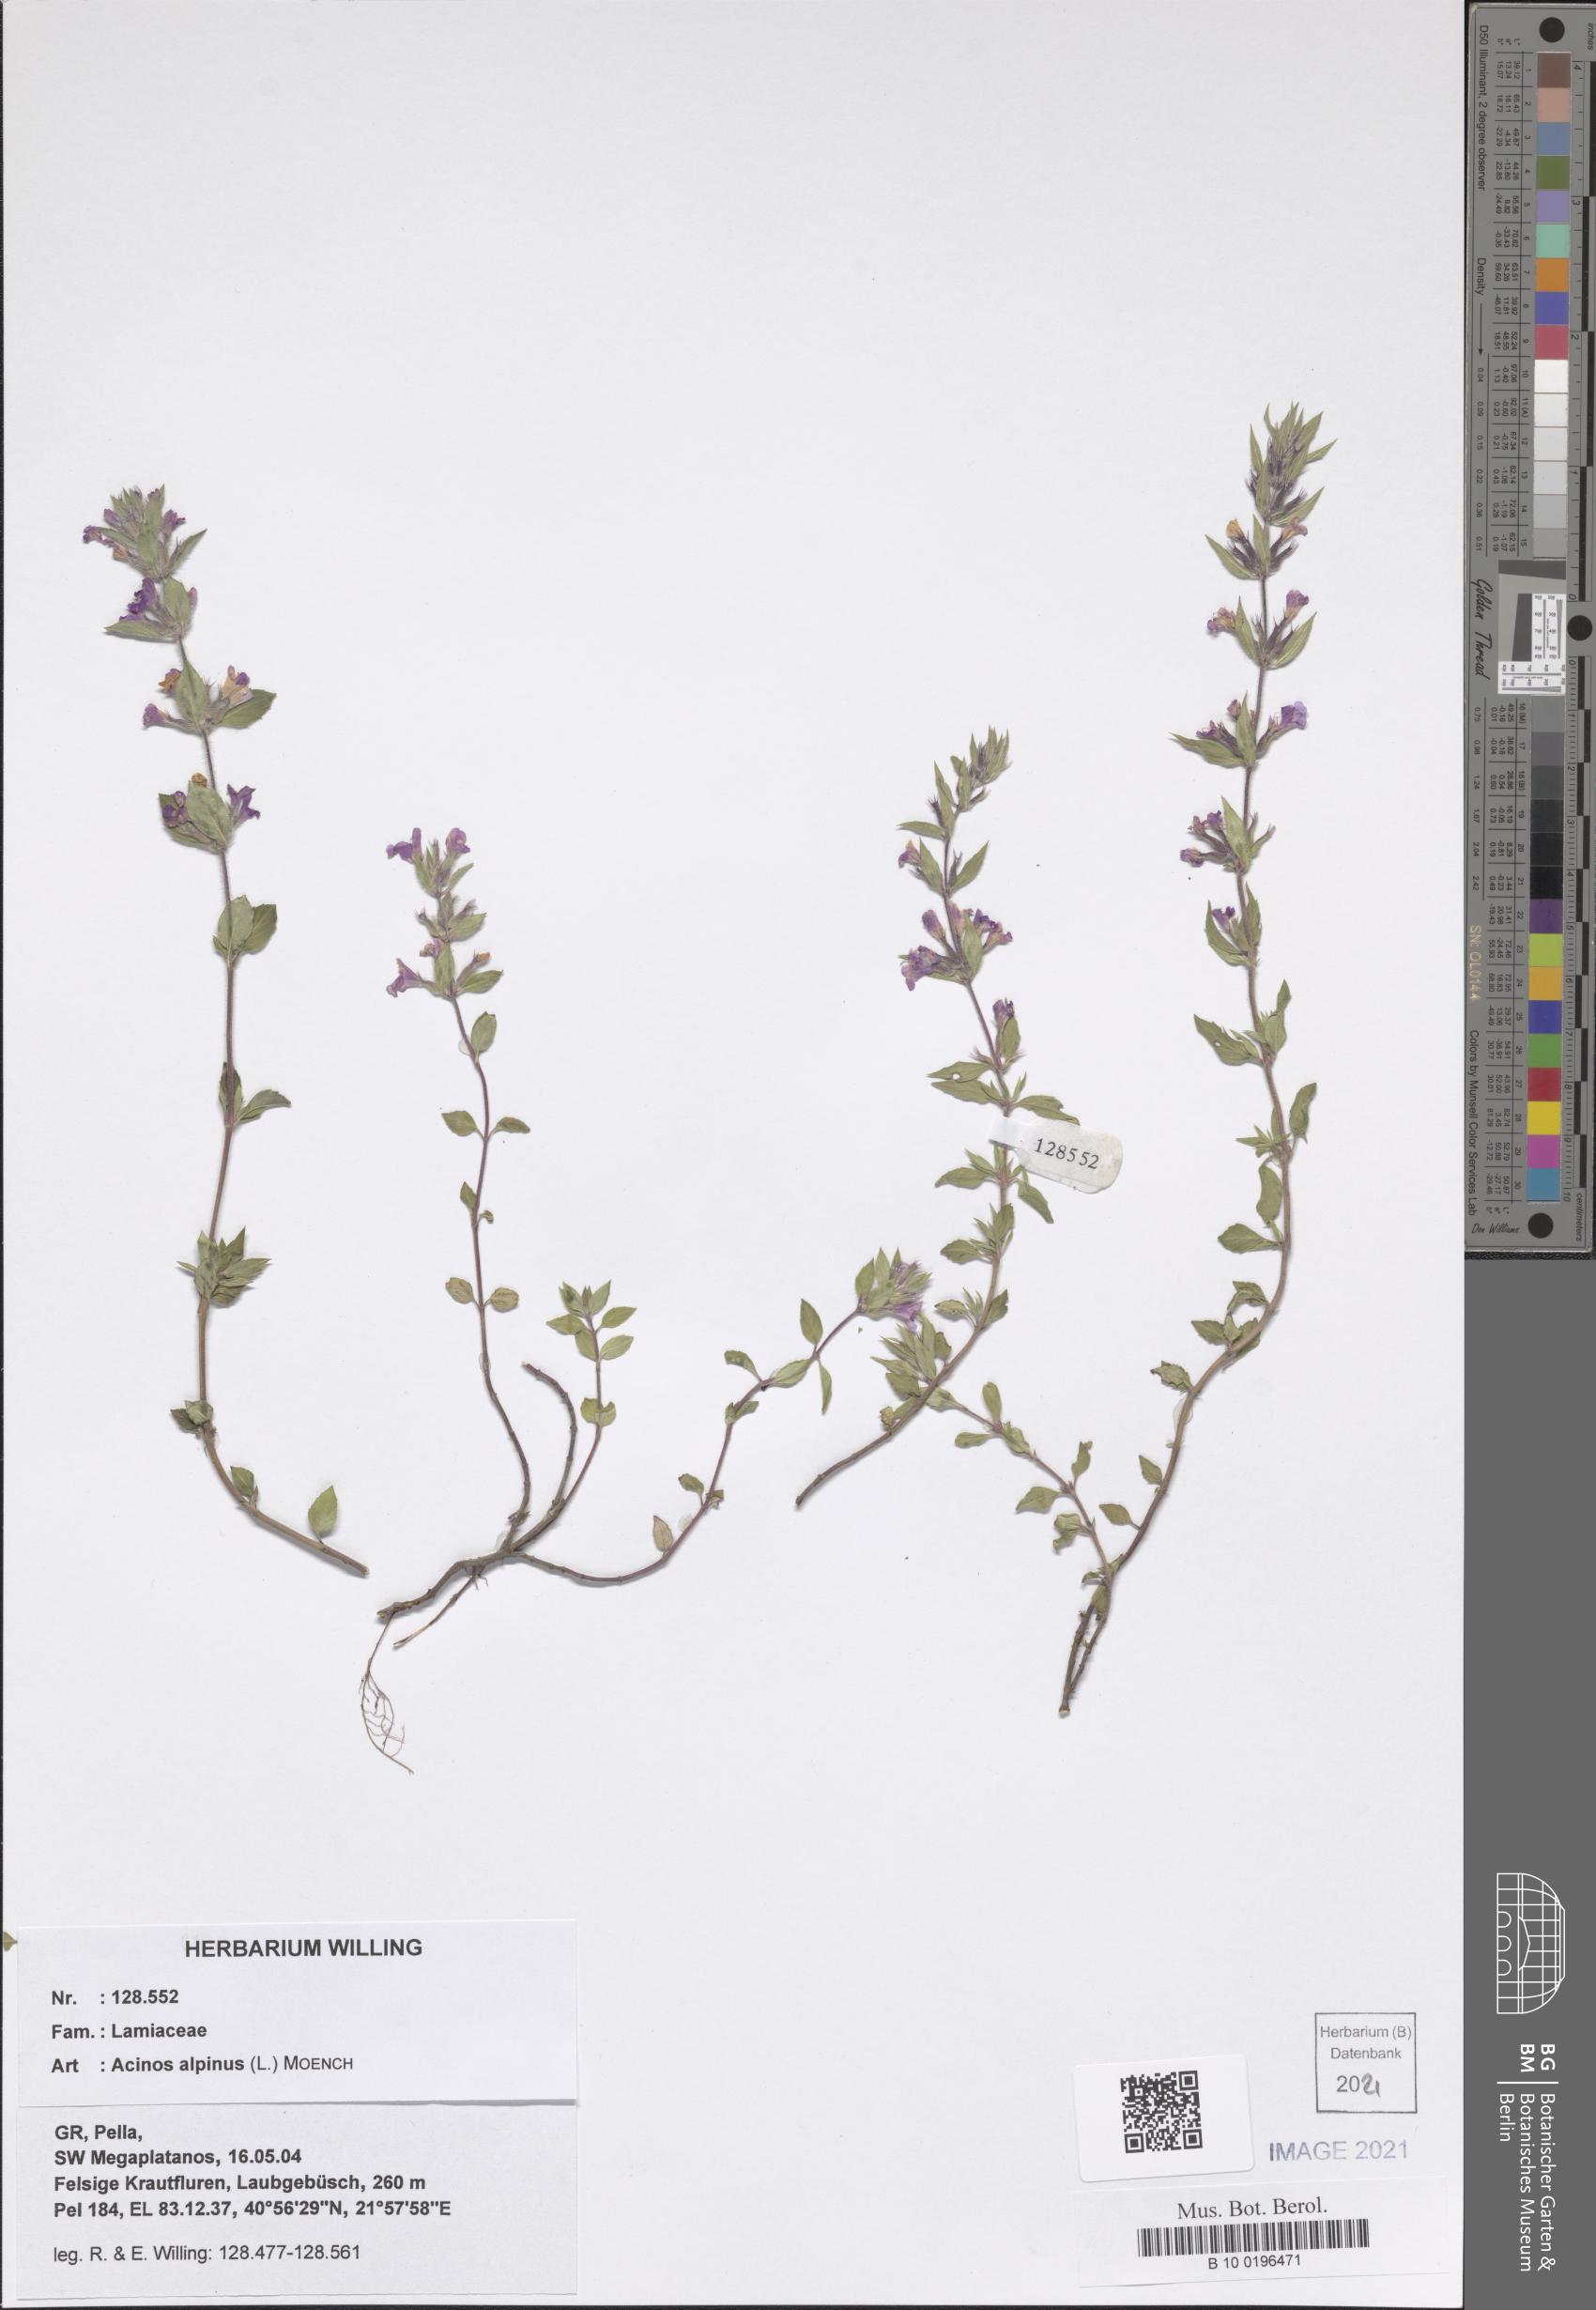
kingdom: Plantae
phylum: Tracheophyta
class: Magnoliopsida
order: Lamiales
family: Lamiaceae
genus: Clinopodium
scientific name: Clinopodium alpinum
